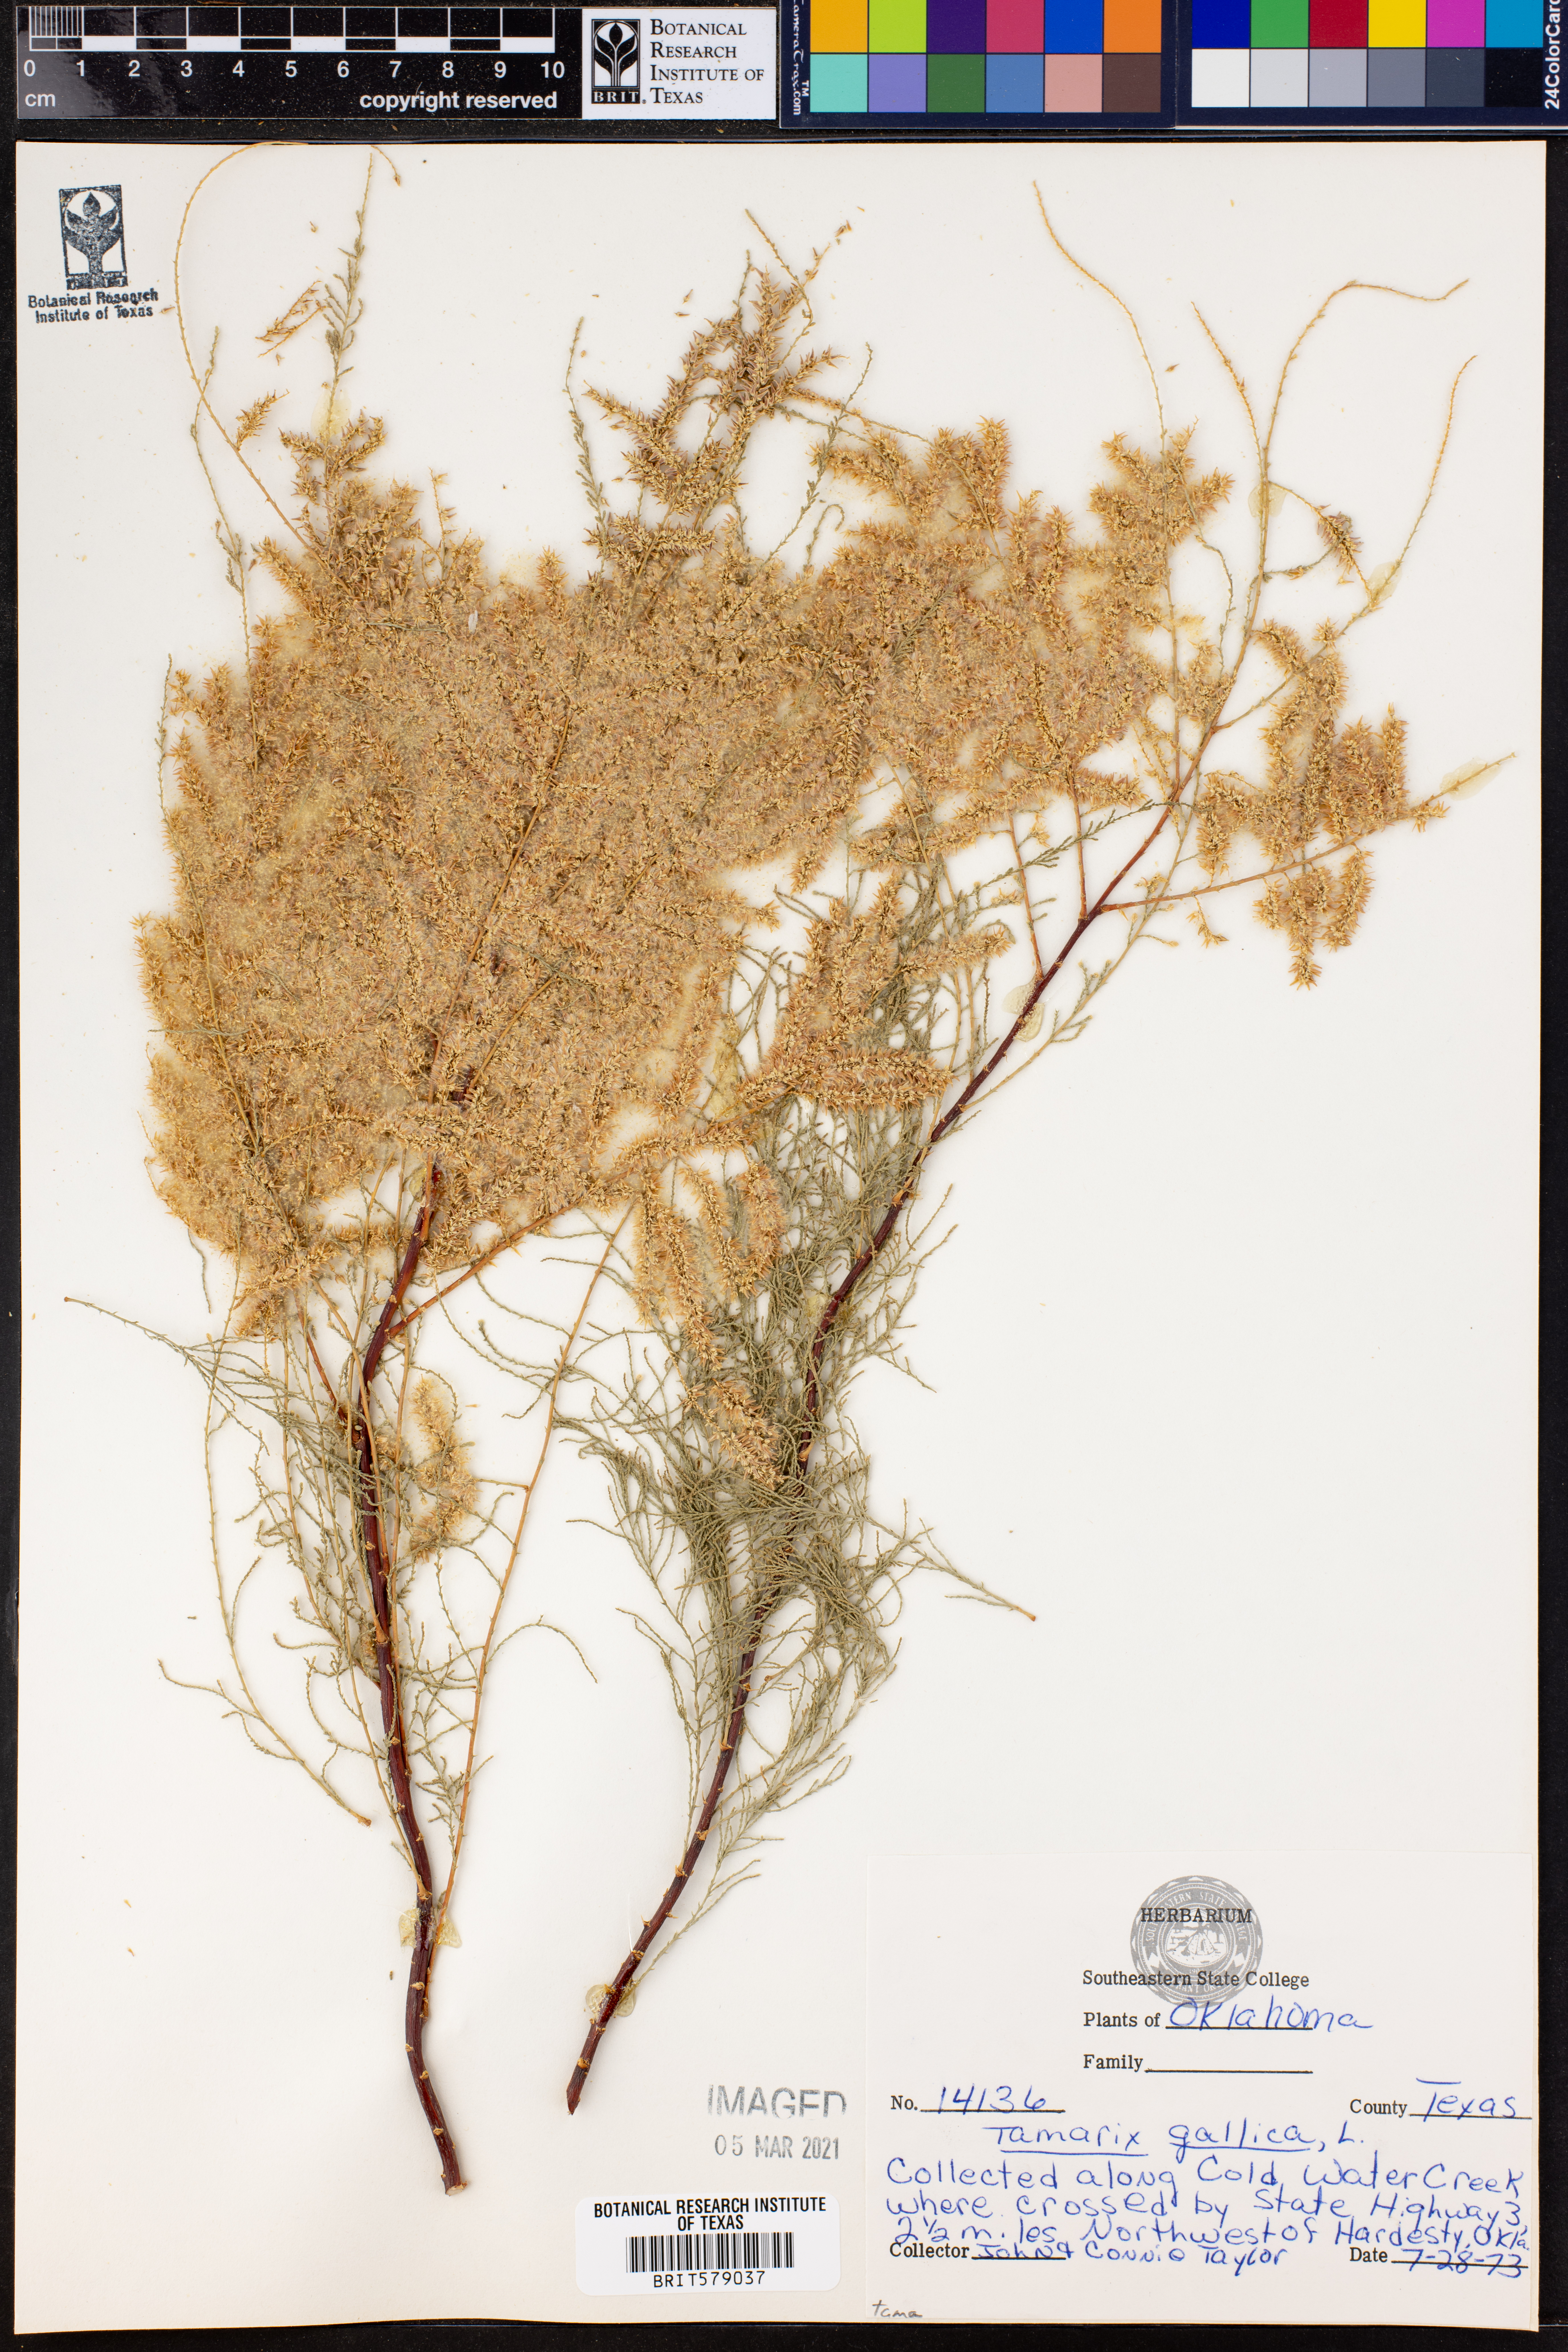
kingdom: Plantae
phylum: Tracheophyta
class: Magnoliopsida
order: Caryophyllales
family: Tamaricaceae
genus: Tamarix
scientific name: Tamarix gallica
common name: Tamarisk
